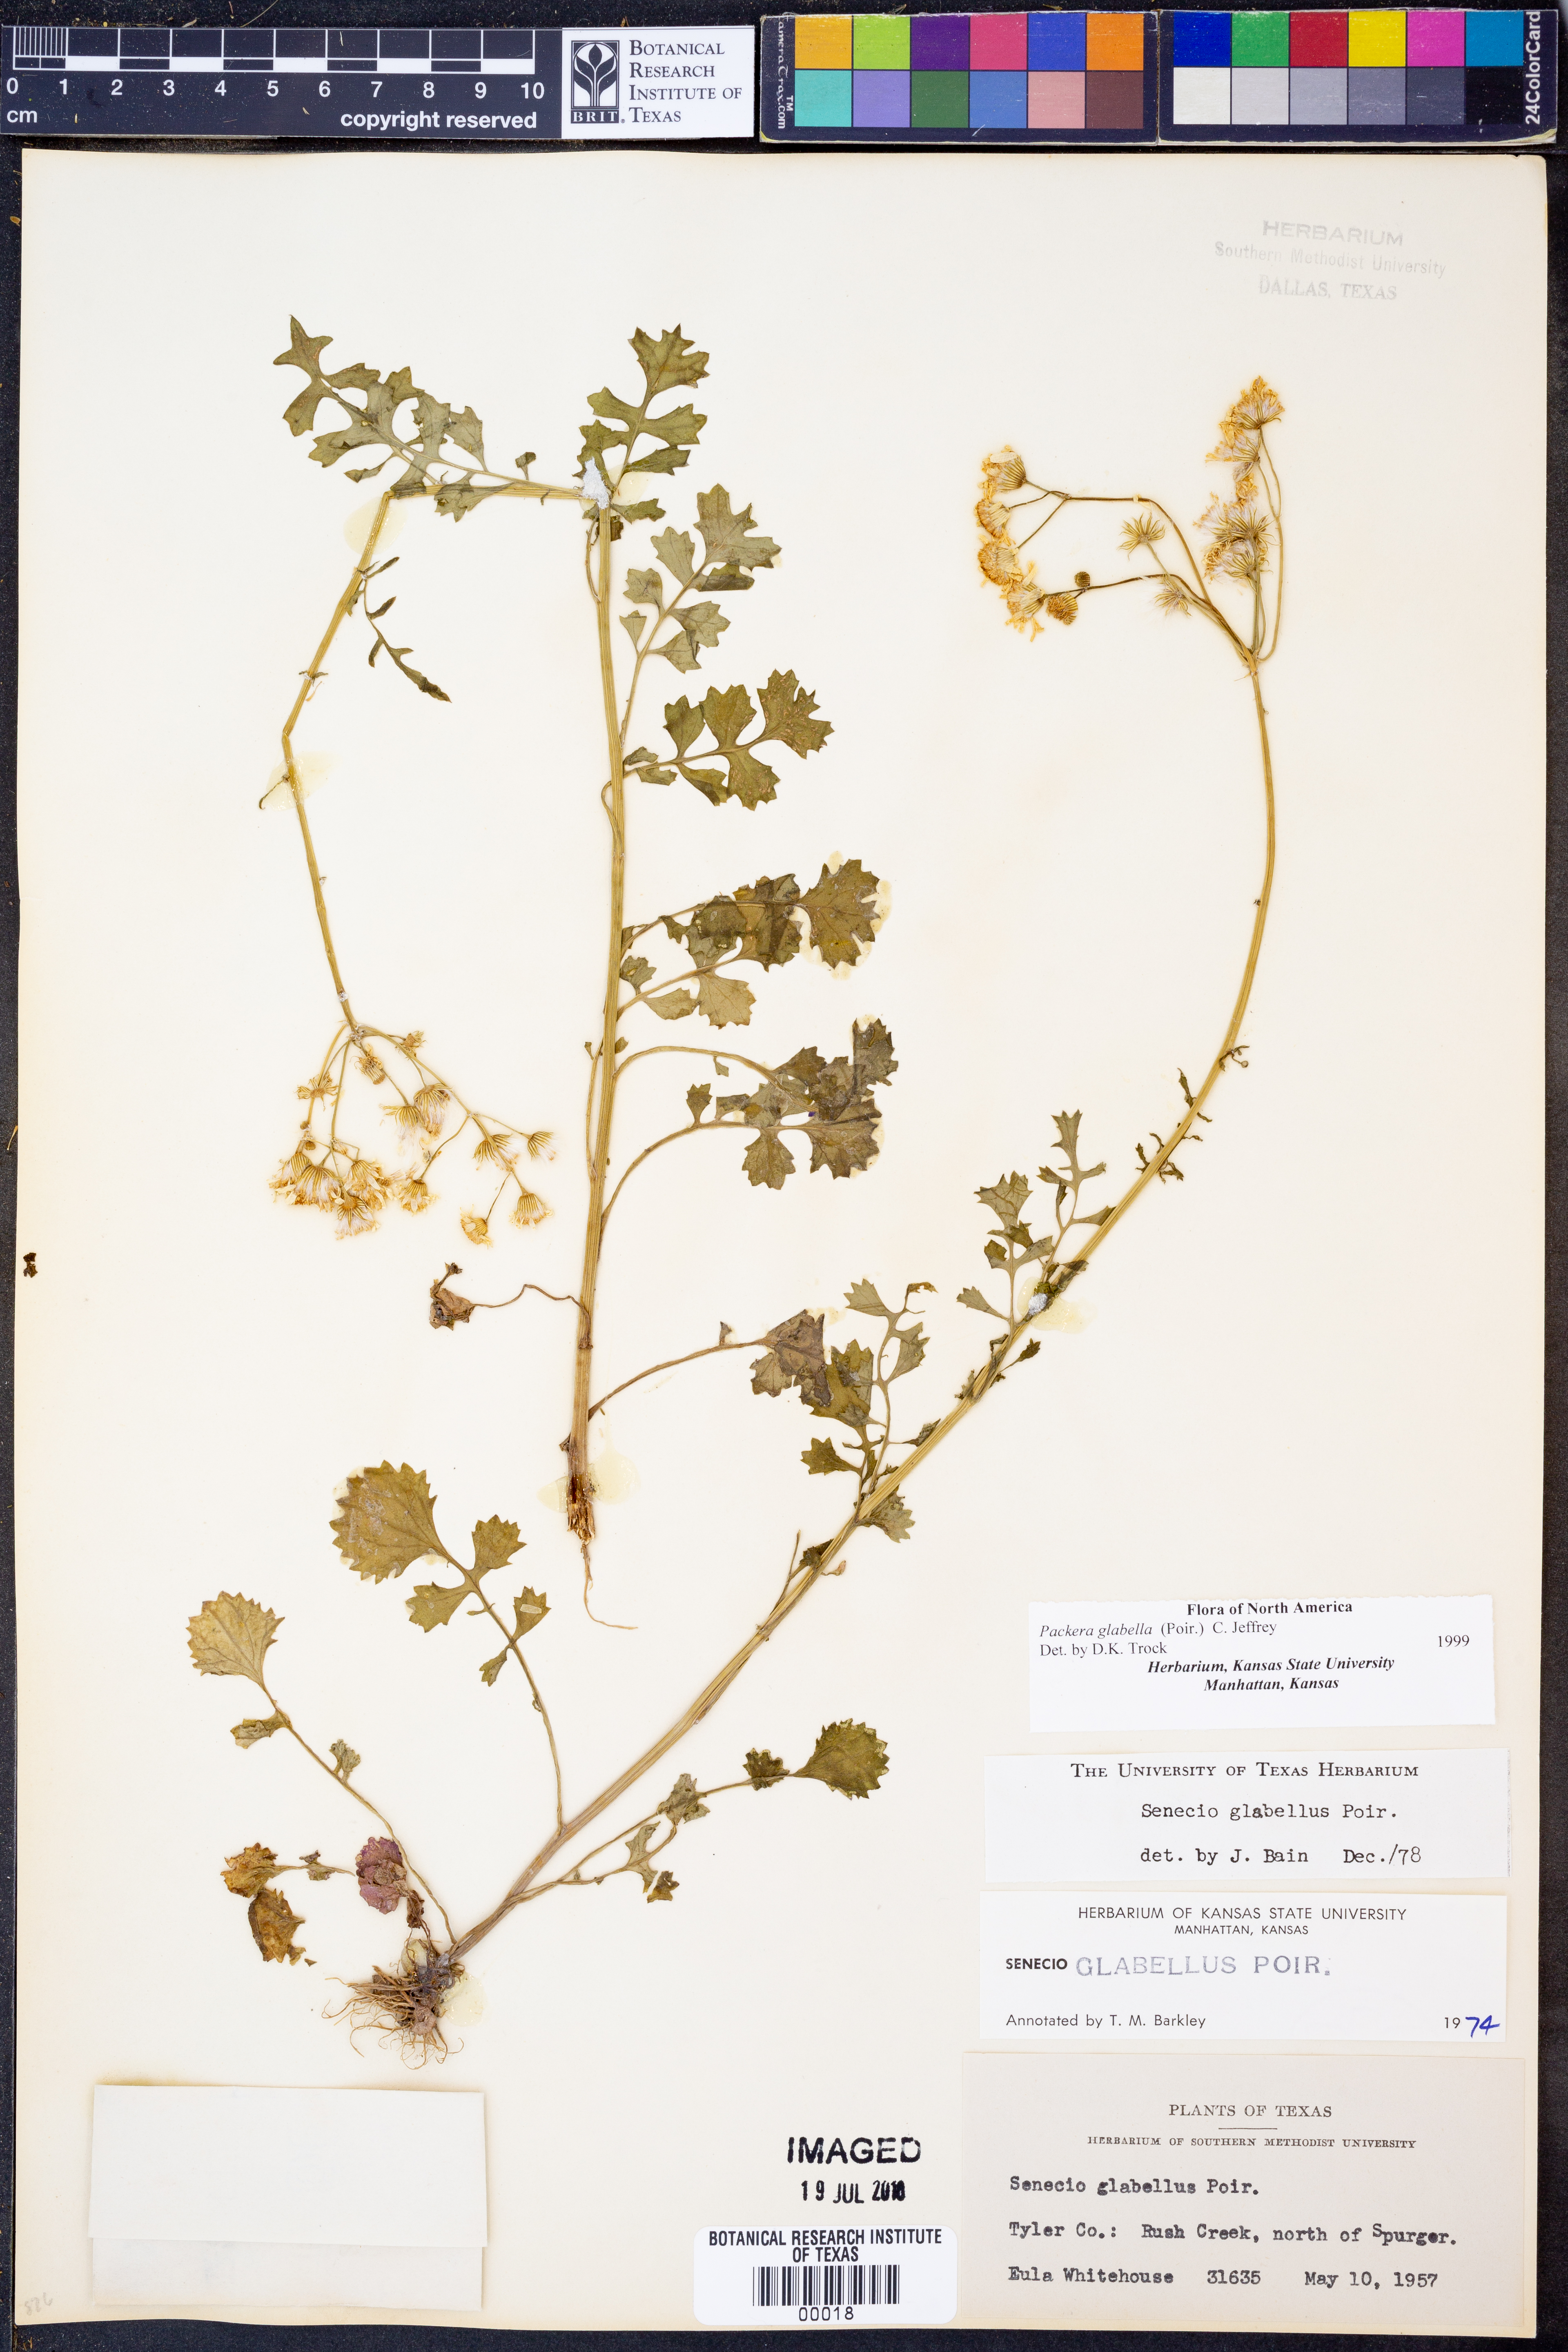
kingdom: Plantae
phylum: Tracheophyta
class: Magnoliopsida
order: Asterales
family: Asteraceae
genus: Packera
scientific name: Packera glabella
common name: Butterweed
